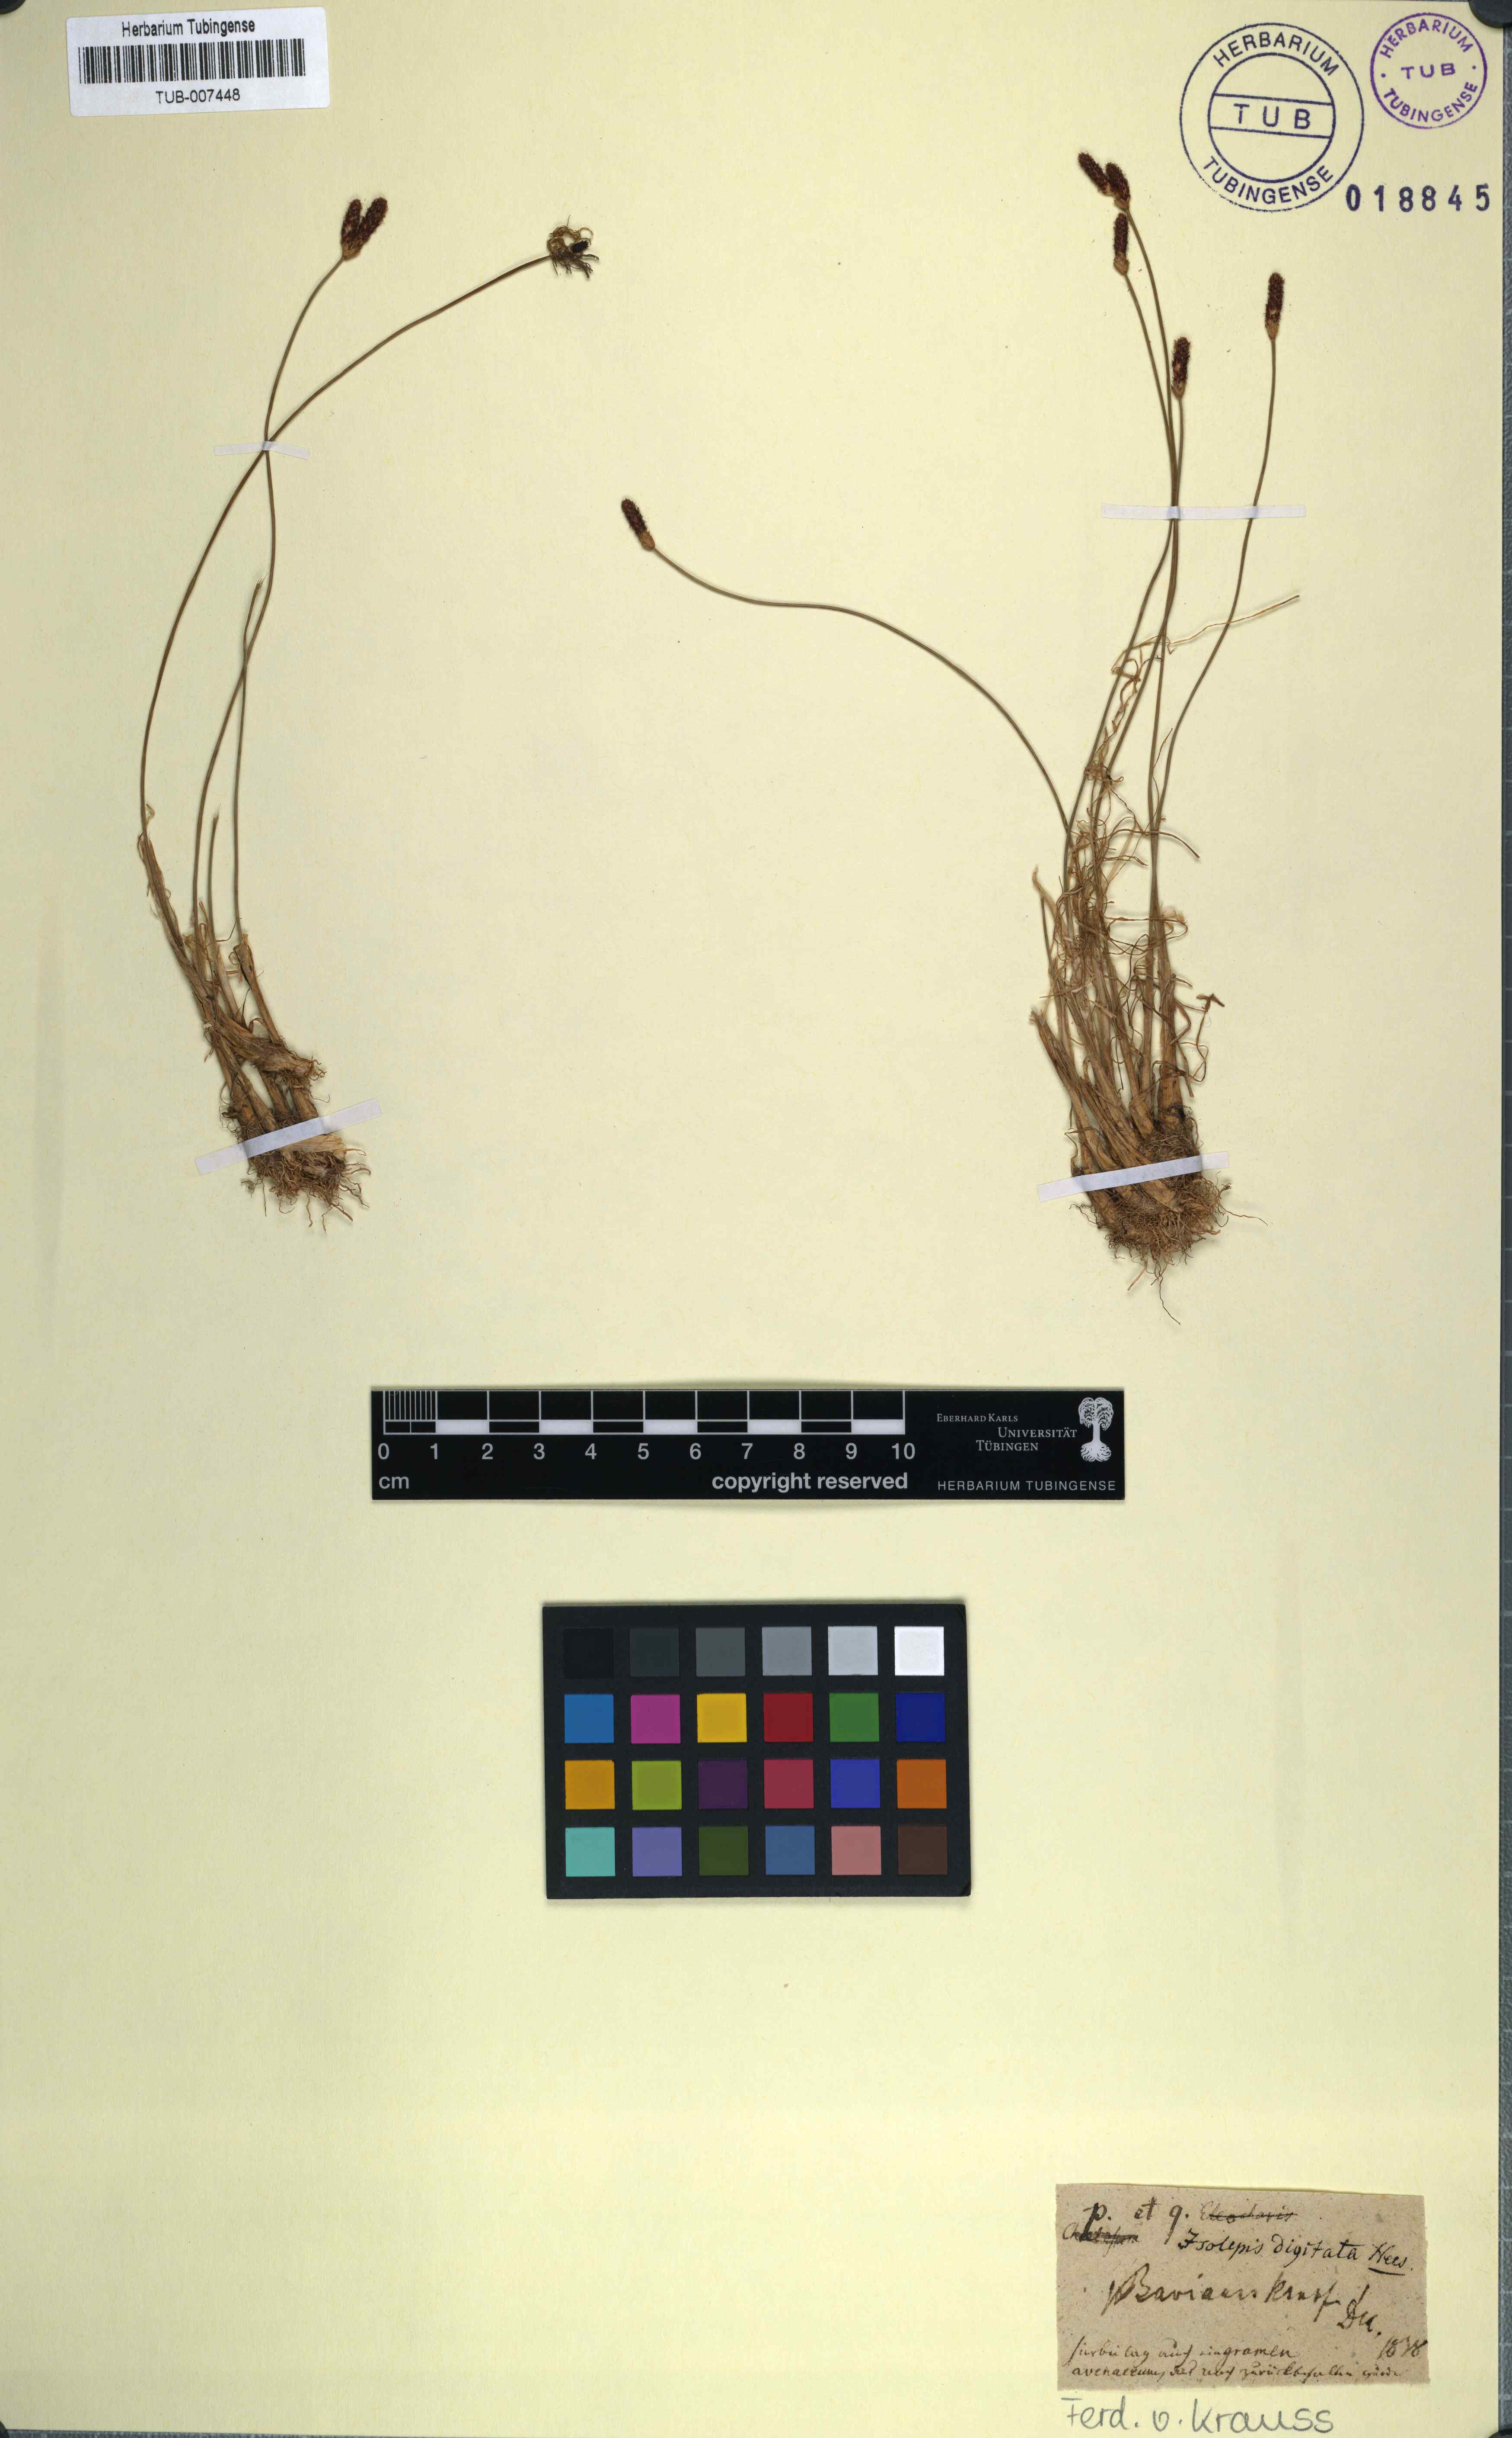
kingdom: Plantae
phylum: Tracheophyta
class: Liliopsida
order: Poales
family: Cyperaceae
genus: Isolepis
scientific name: Isolepis digitata
